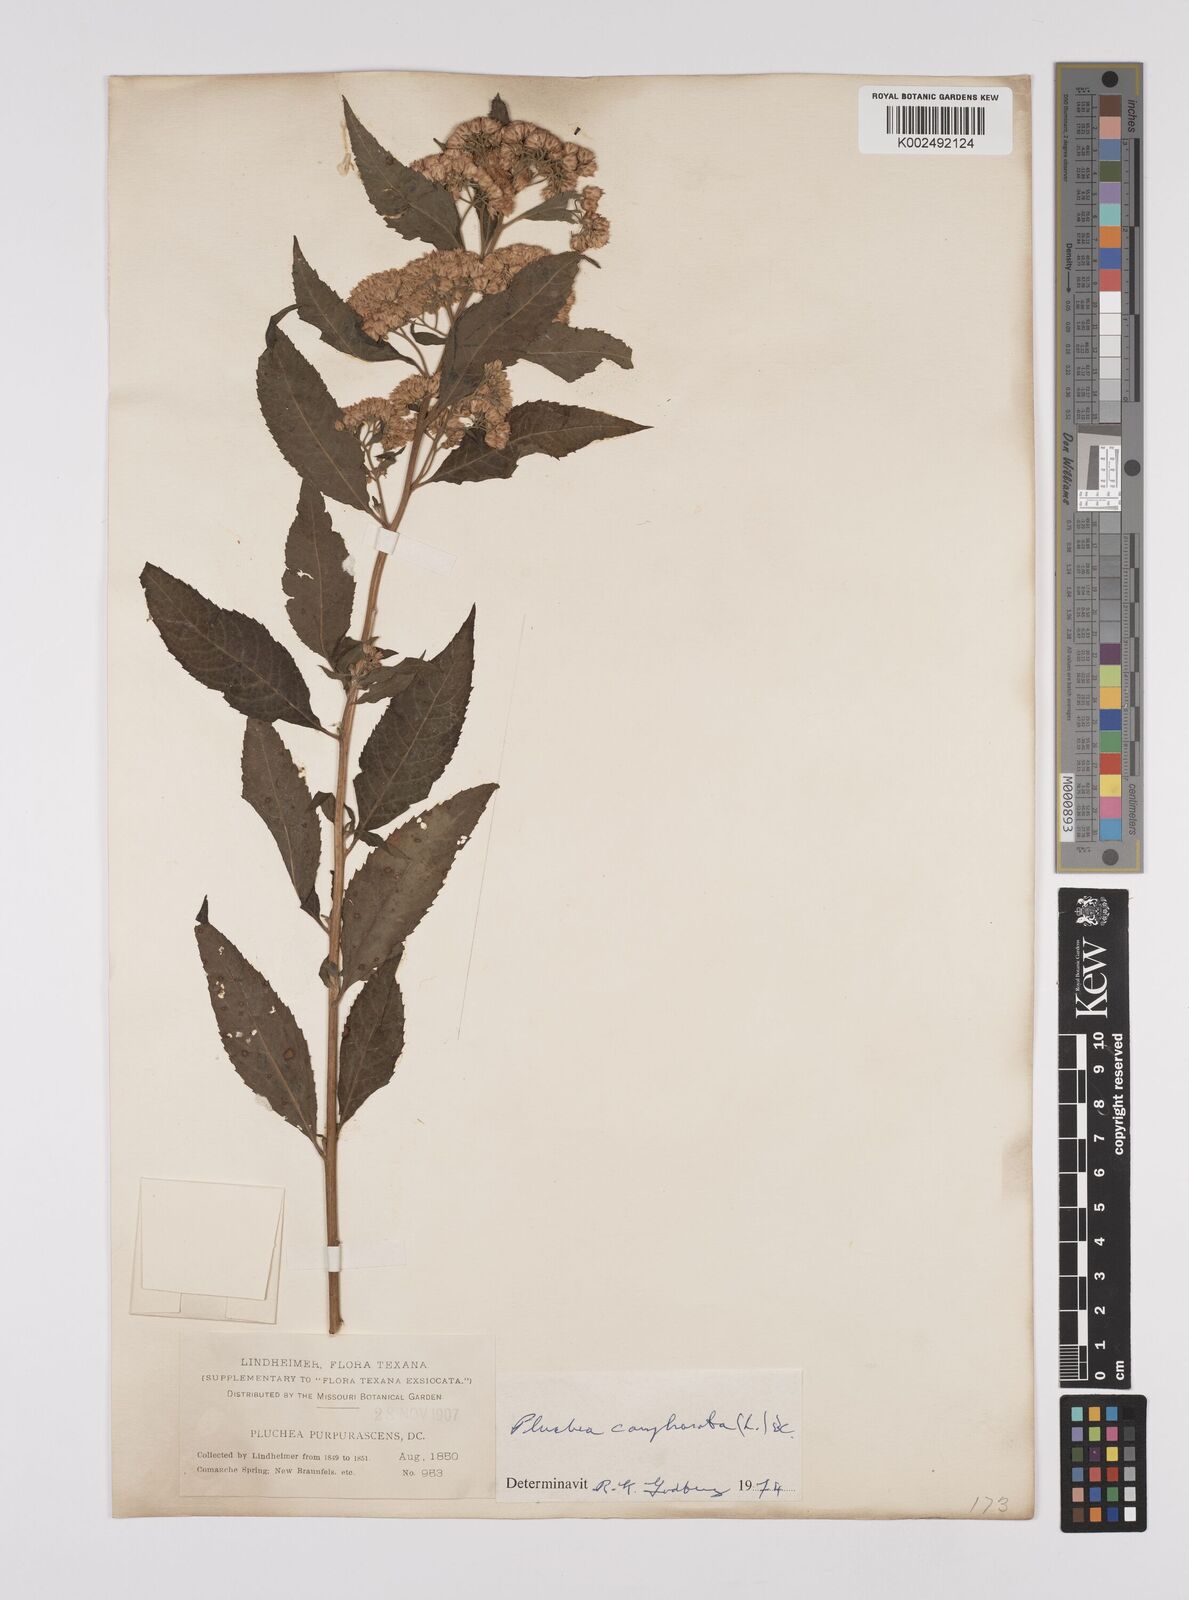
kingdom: Plantae
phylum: Tracheophyta
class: Magnoliopsida
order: Asterales
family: Asteraceae
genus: Pluchea
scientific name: Pluchea camphorata
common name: Camphor pluchea
